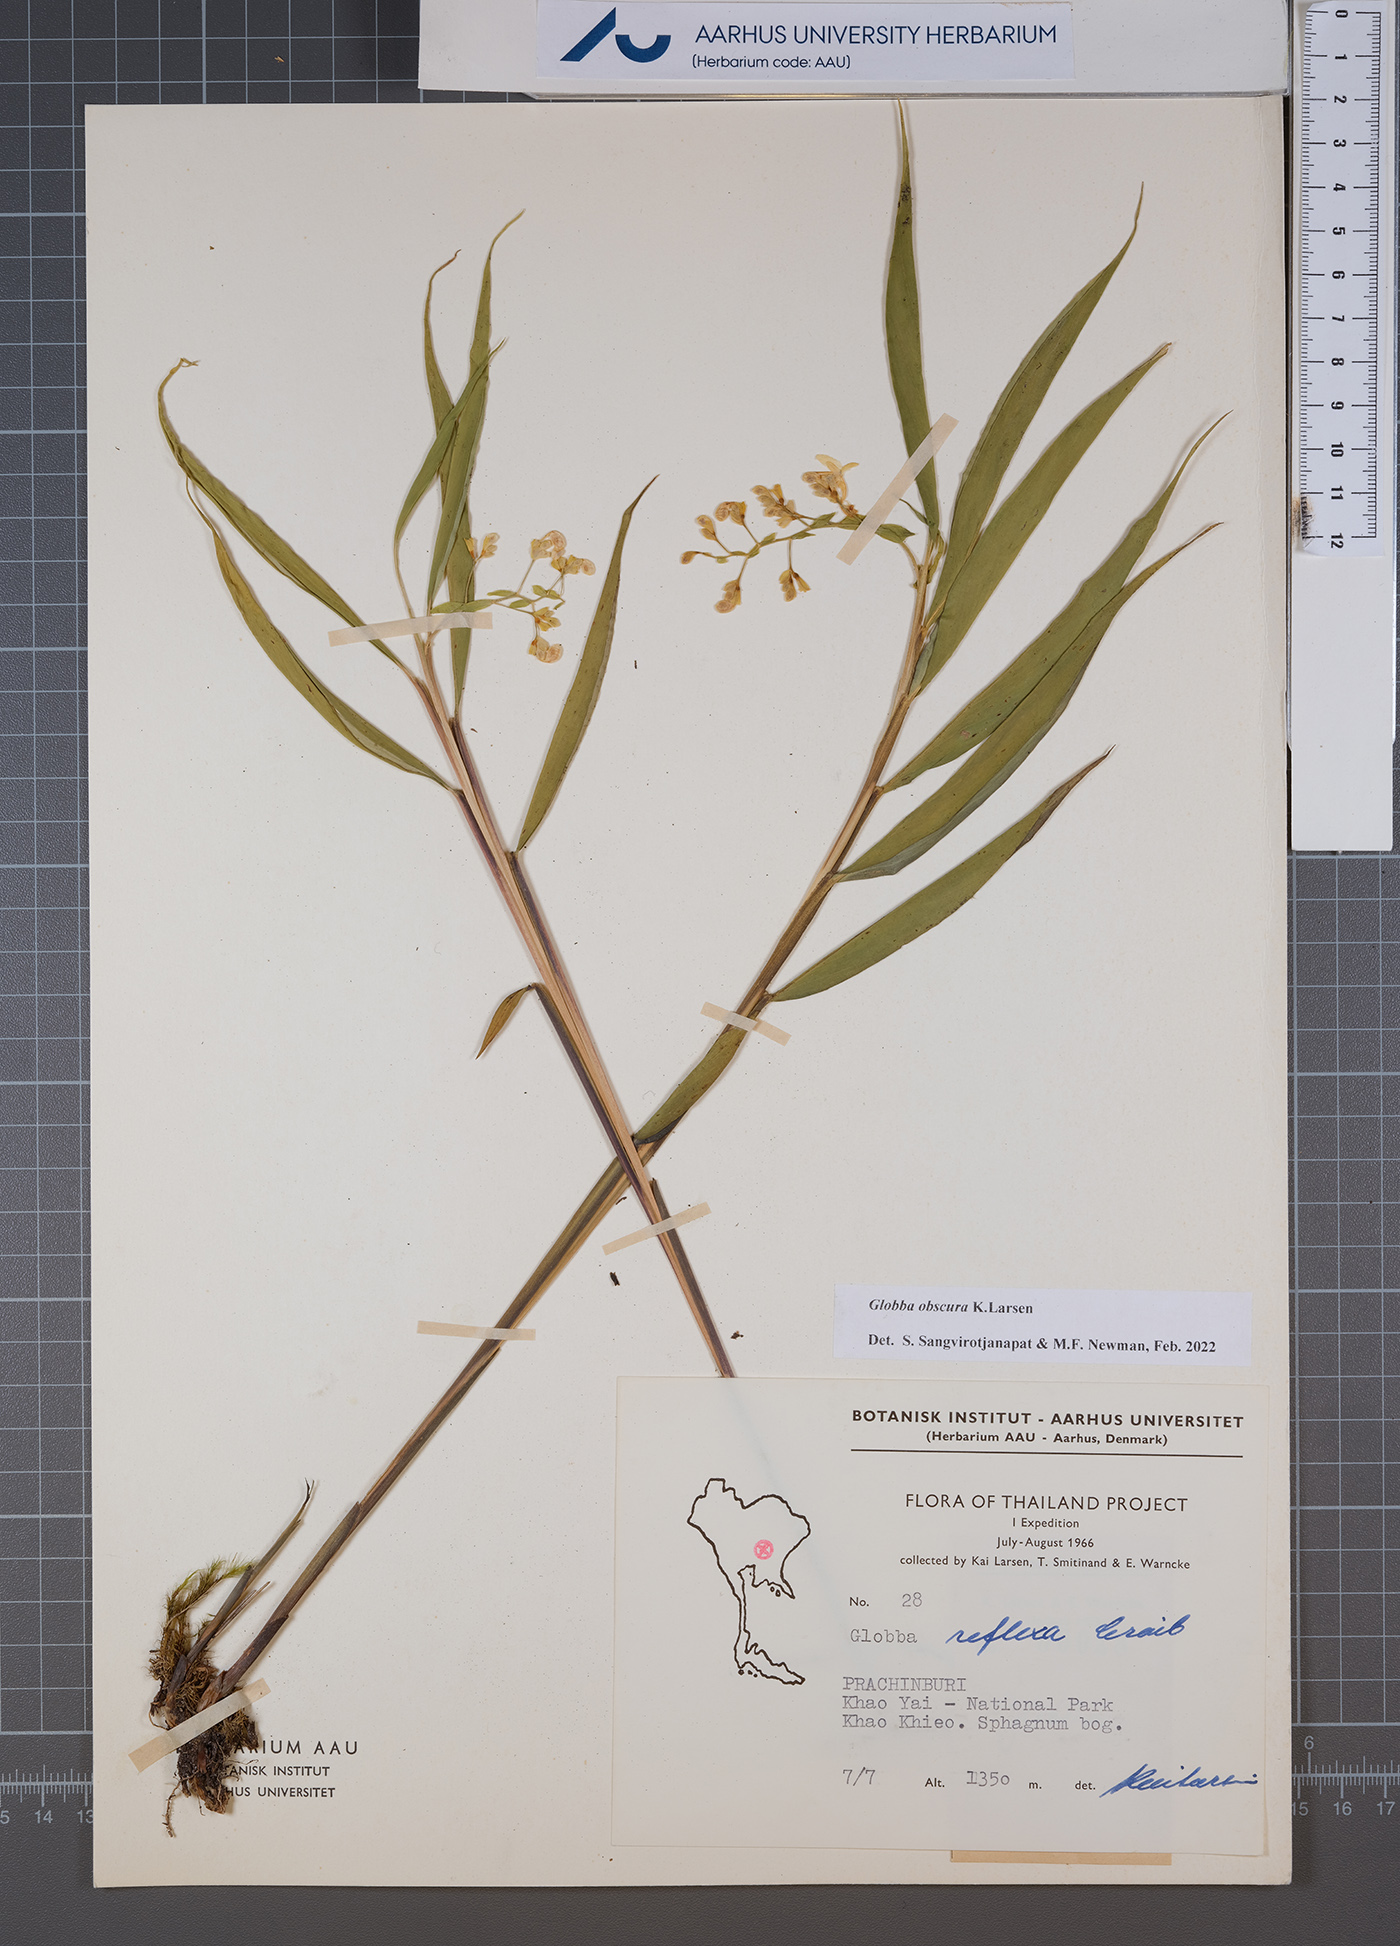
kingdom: Plantae
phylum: Tracheophyta
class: Liliopsida
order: Zingiberales
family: Zingiberaceae
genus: Globba
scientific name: Globba obscura
